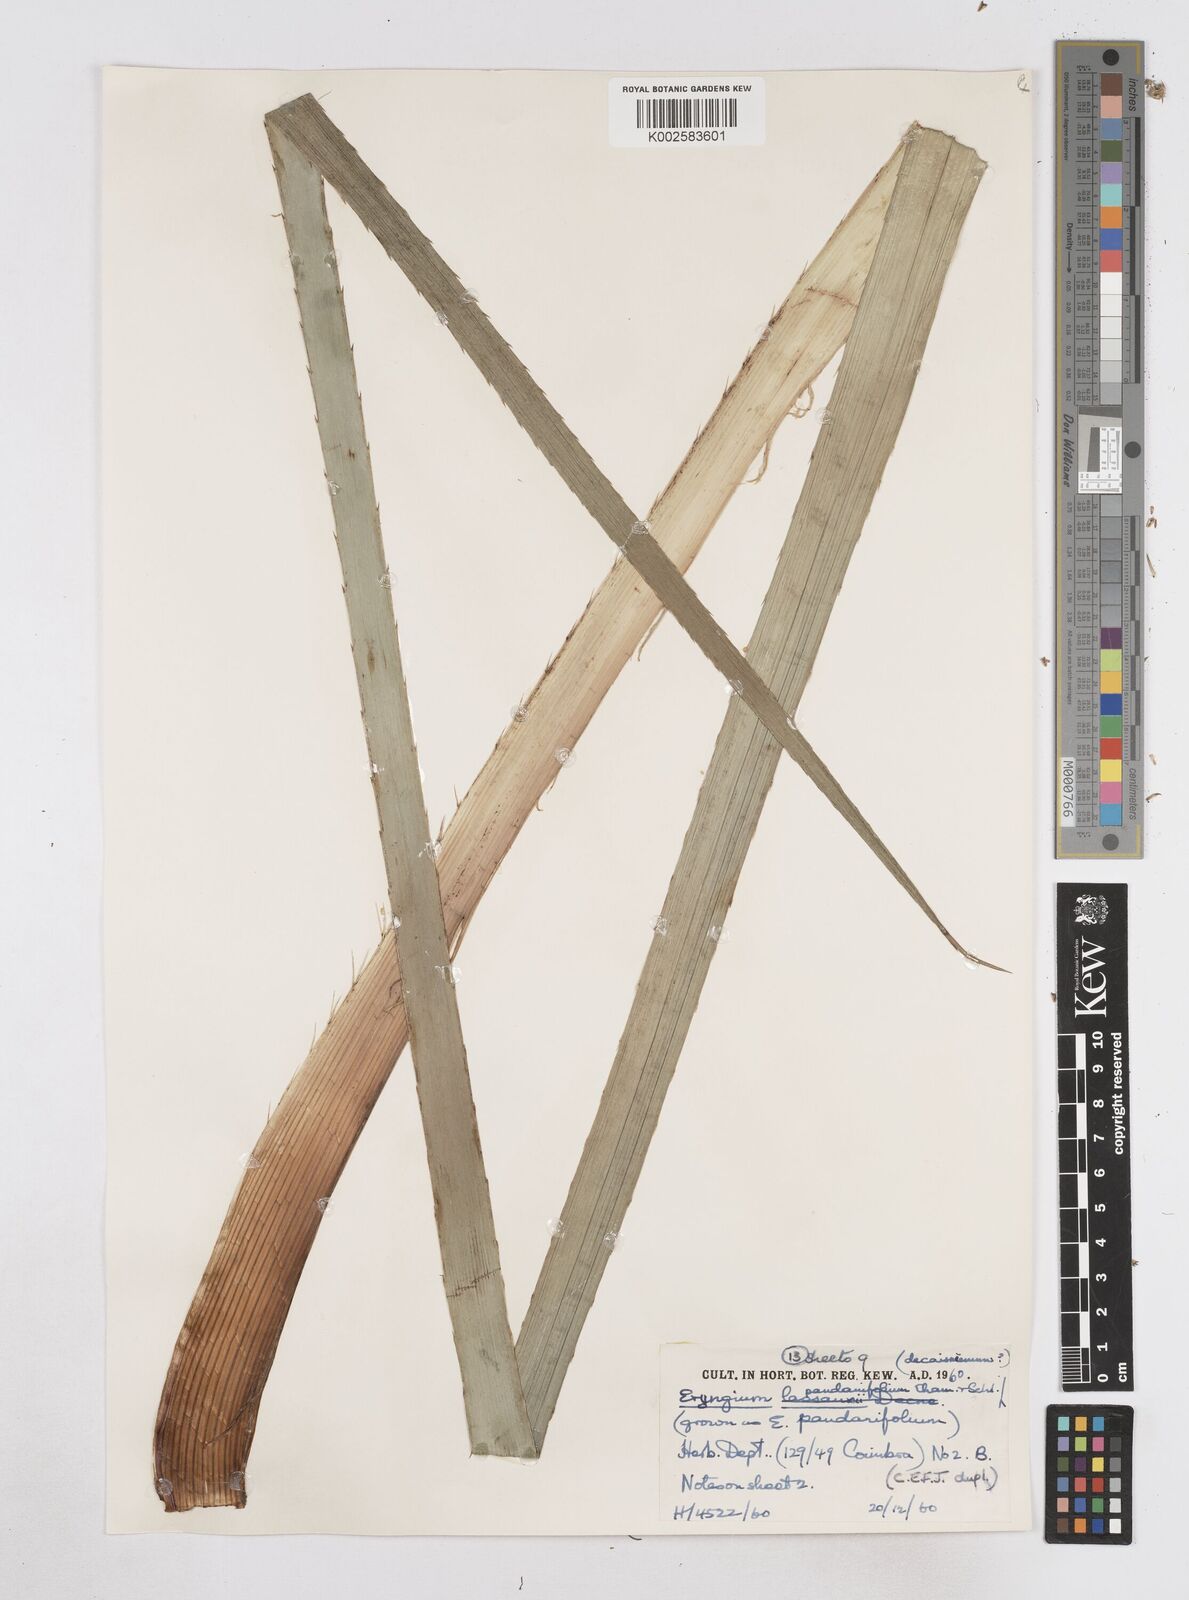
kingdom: Plantae
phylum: Tracheophyta
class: Magnoliopsida
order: Apiales
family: Apiaceae
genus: Eryngium
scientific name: Eryngium pandanifolium
